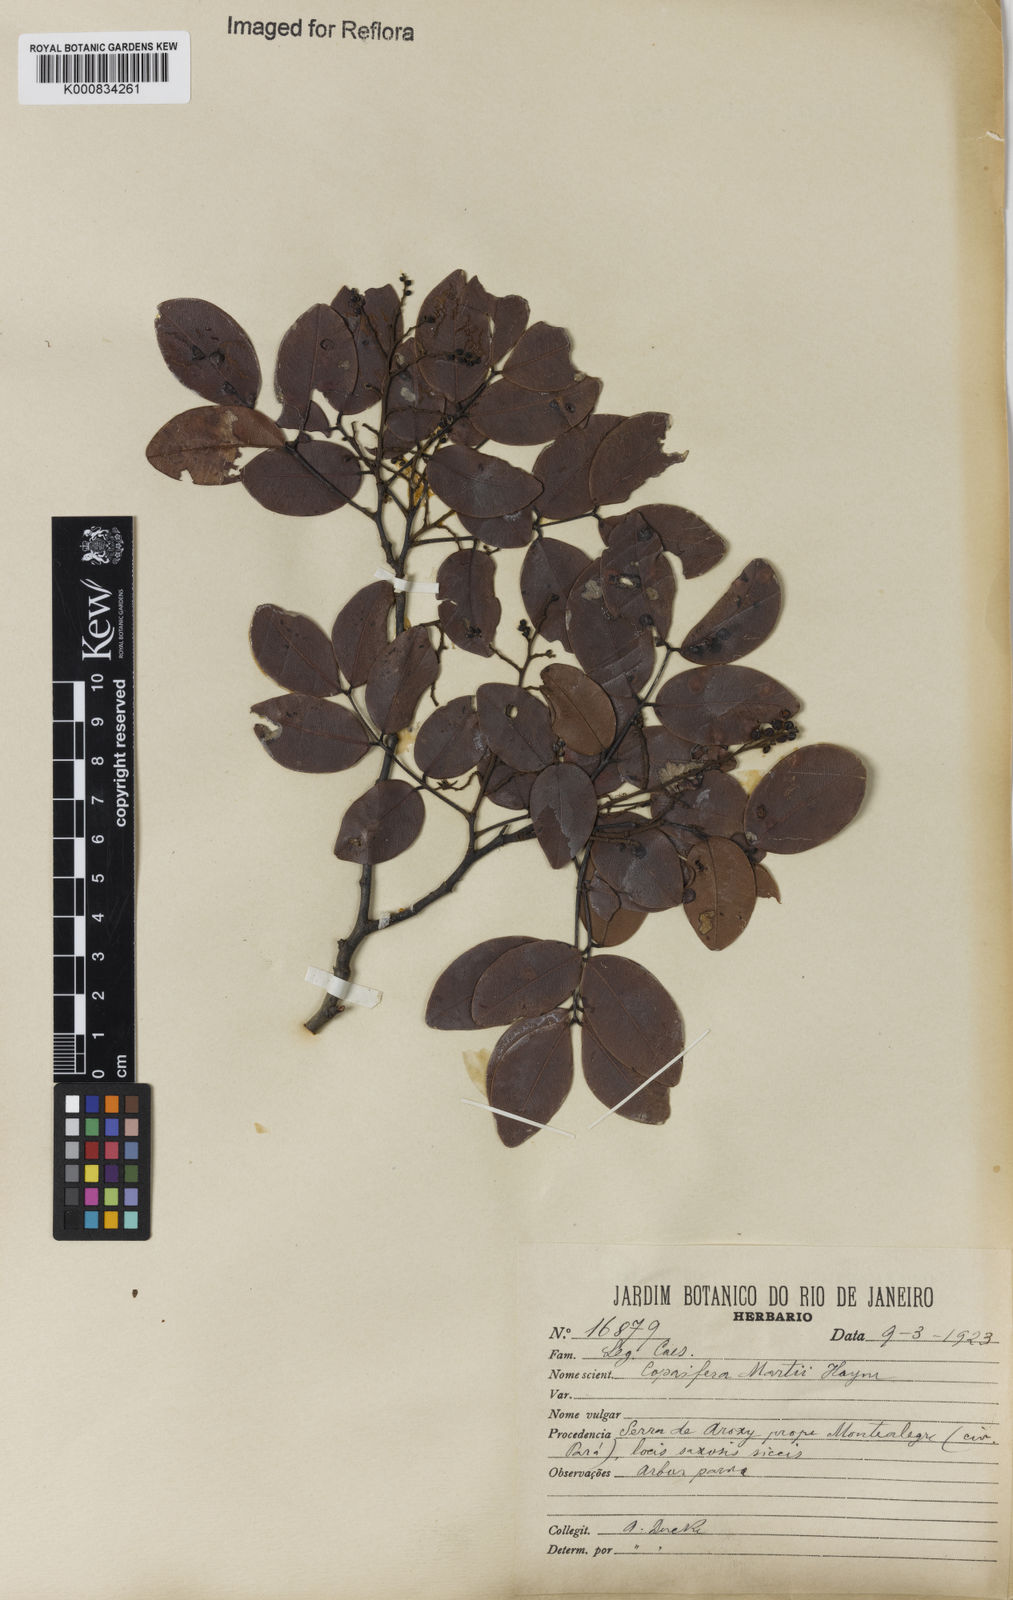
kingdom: Plantae
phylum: Tracheophyta
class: Magnoliopsida
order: Fabales
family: Fabaceae
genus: Copaifera
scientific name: Copaifera martii
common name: Copaiba
